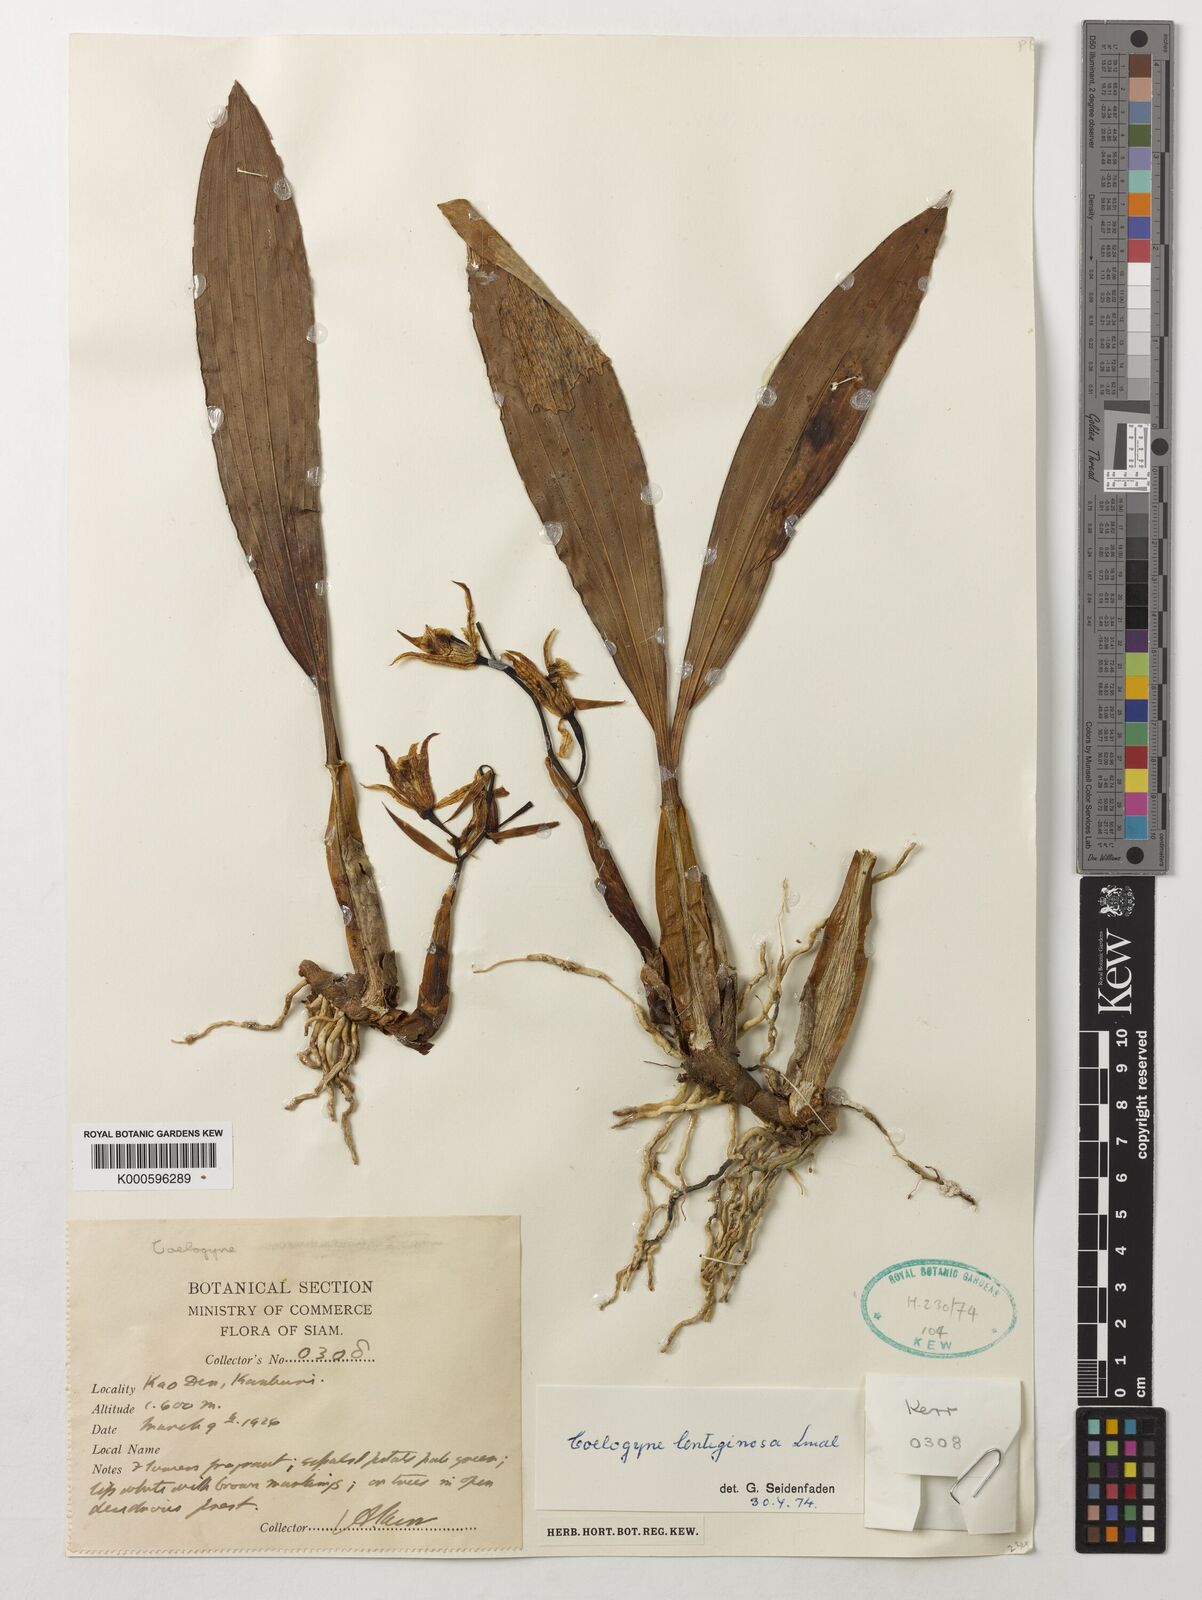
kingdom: Plantae
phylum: Tracheophyta
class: Liliopsida
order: Asparagales
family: Orchidaceae
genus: Coelogyne
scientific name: Coelogyne lentiginosa
